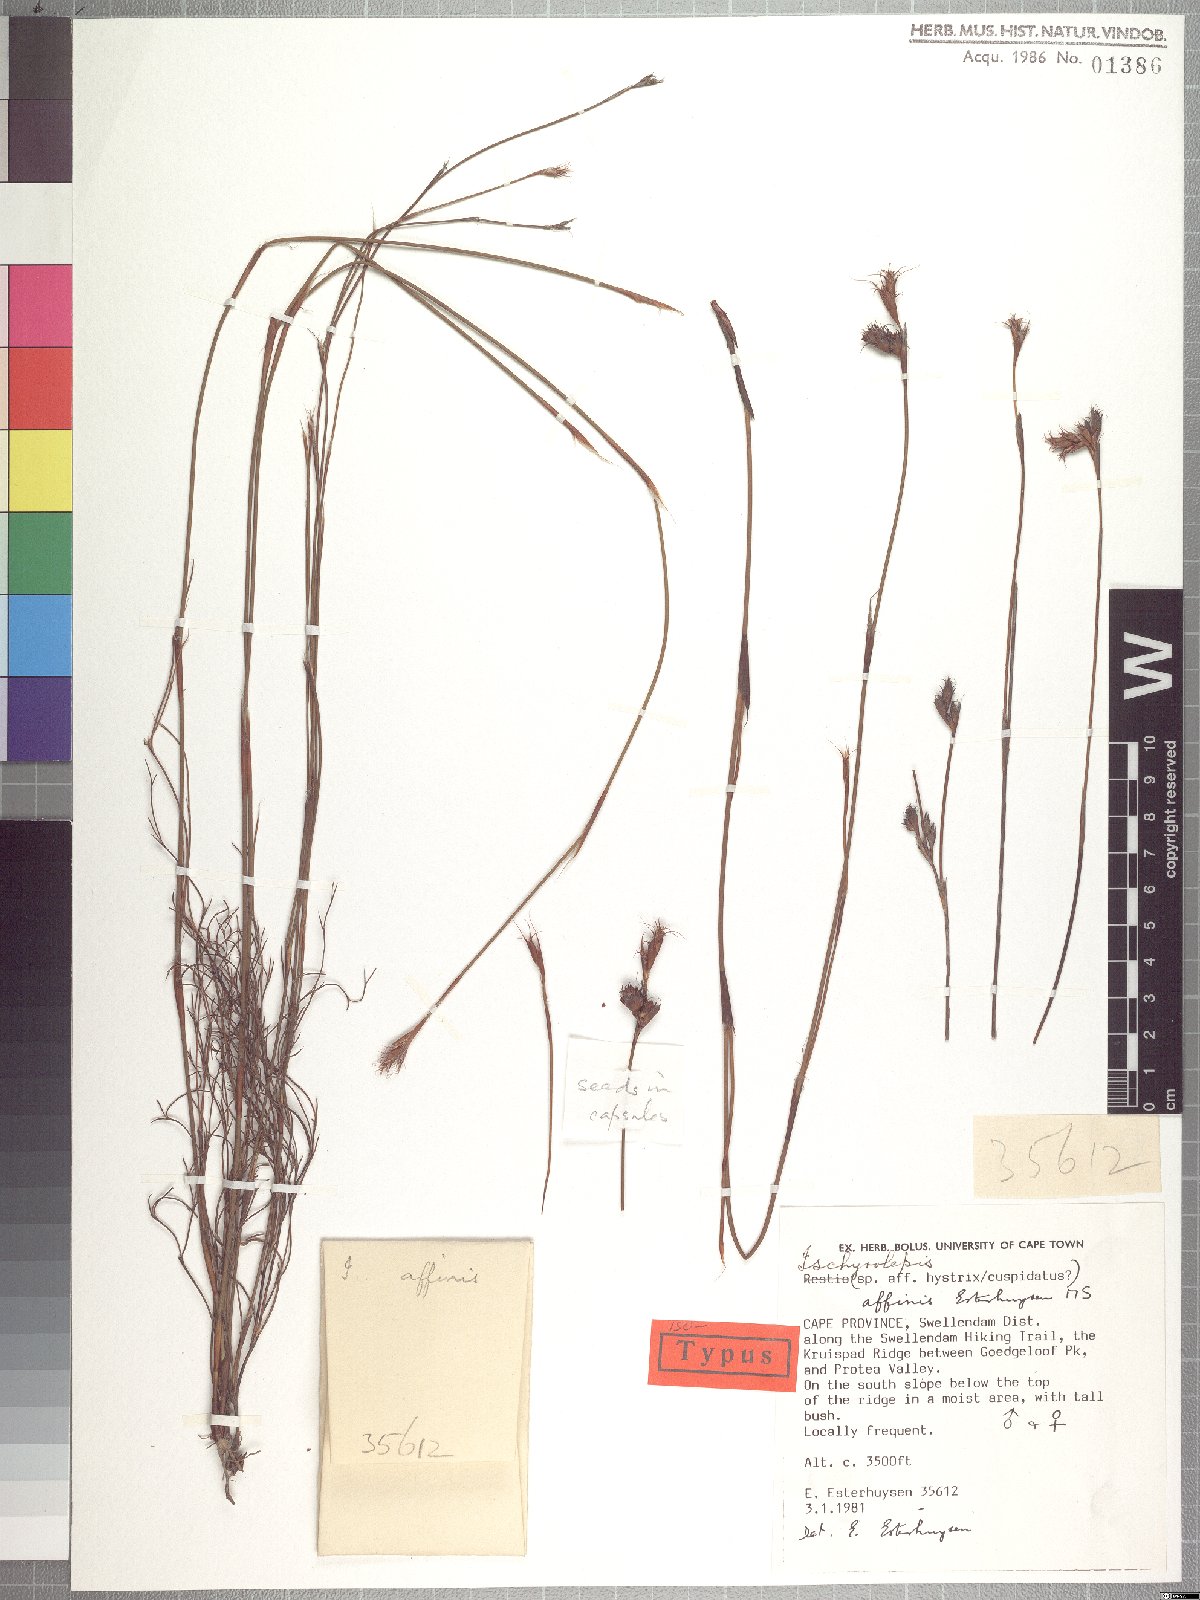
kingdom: Plantae
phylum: Tracheophyta
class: Liliopsida
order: Poales
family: Restionaceae
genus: Restio
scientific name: Restio affinis
